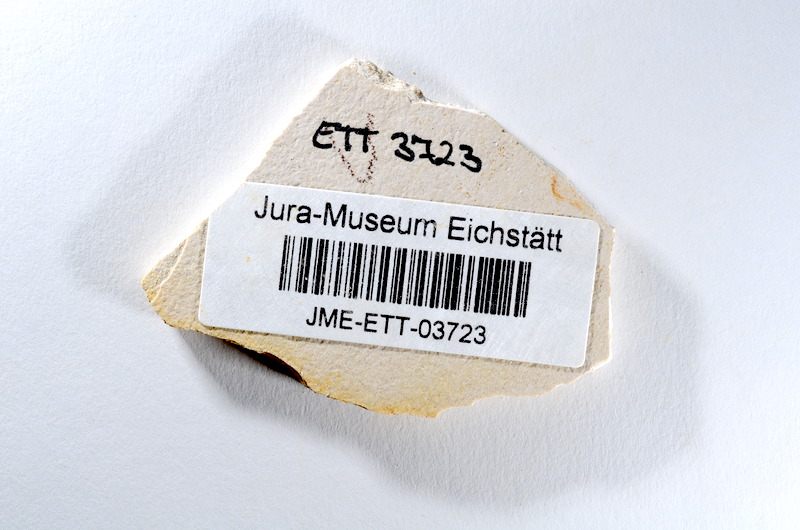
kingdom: Animalia
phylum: Chordata
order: Salmoniformes
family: Orthogonikleithridae
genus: Orthogonikleithrus
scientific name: Orthogonikleithrus hoelli
